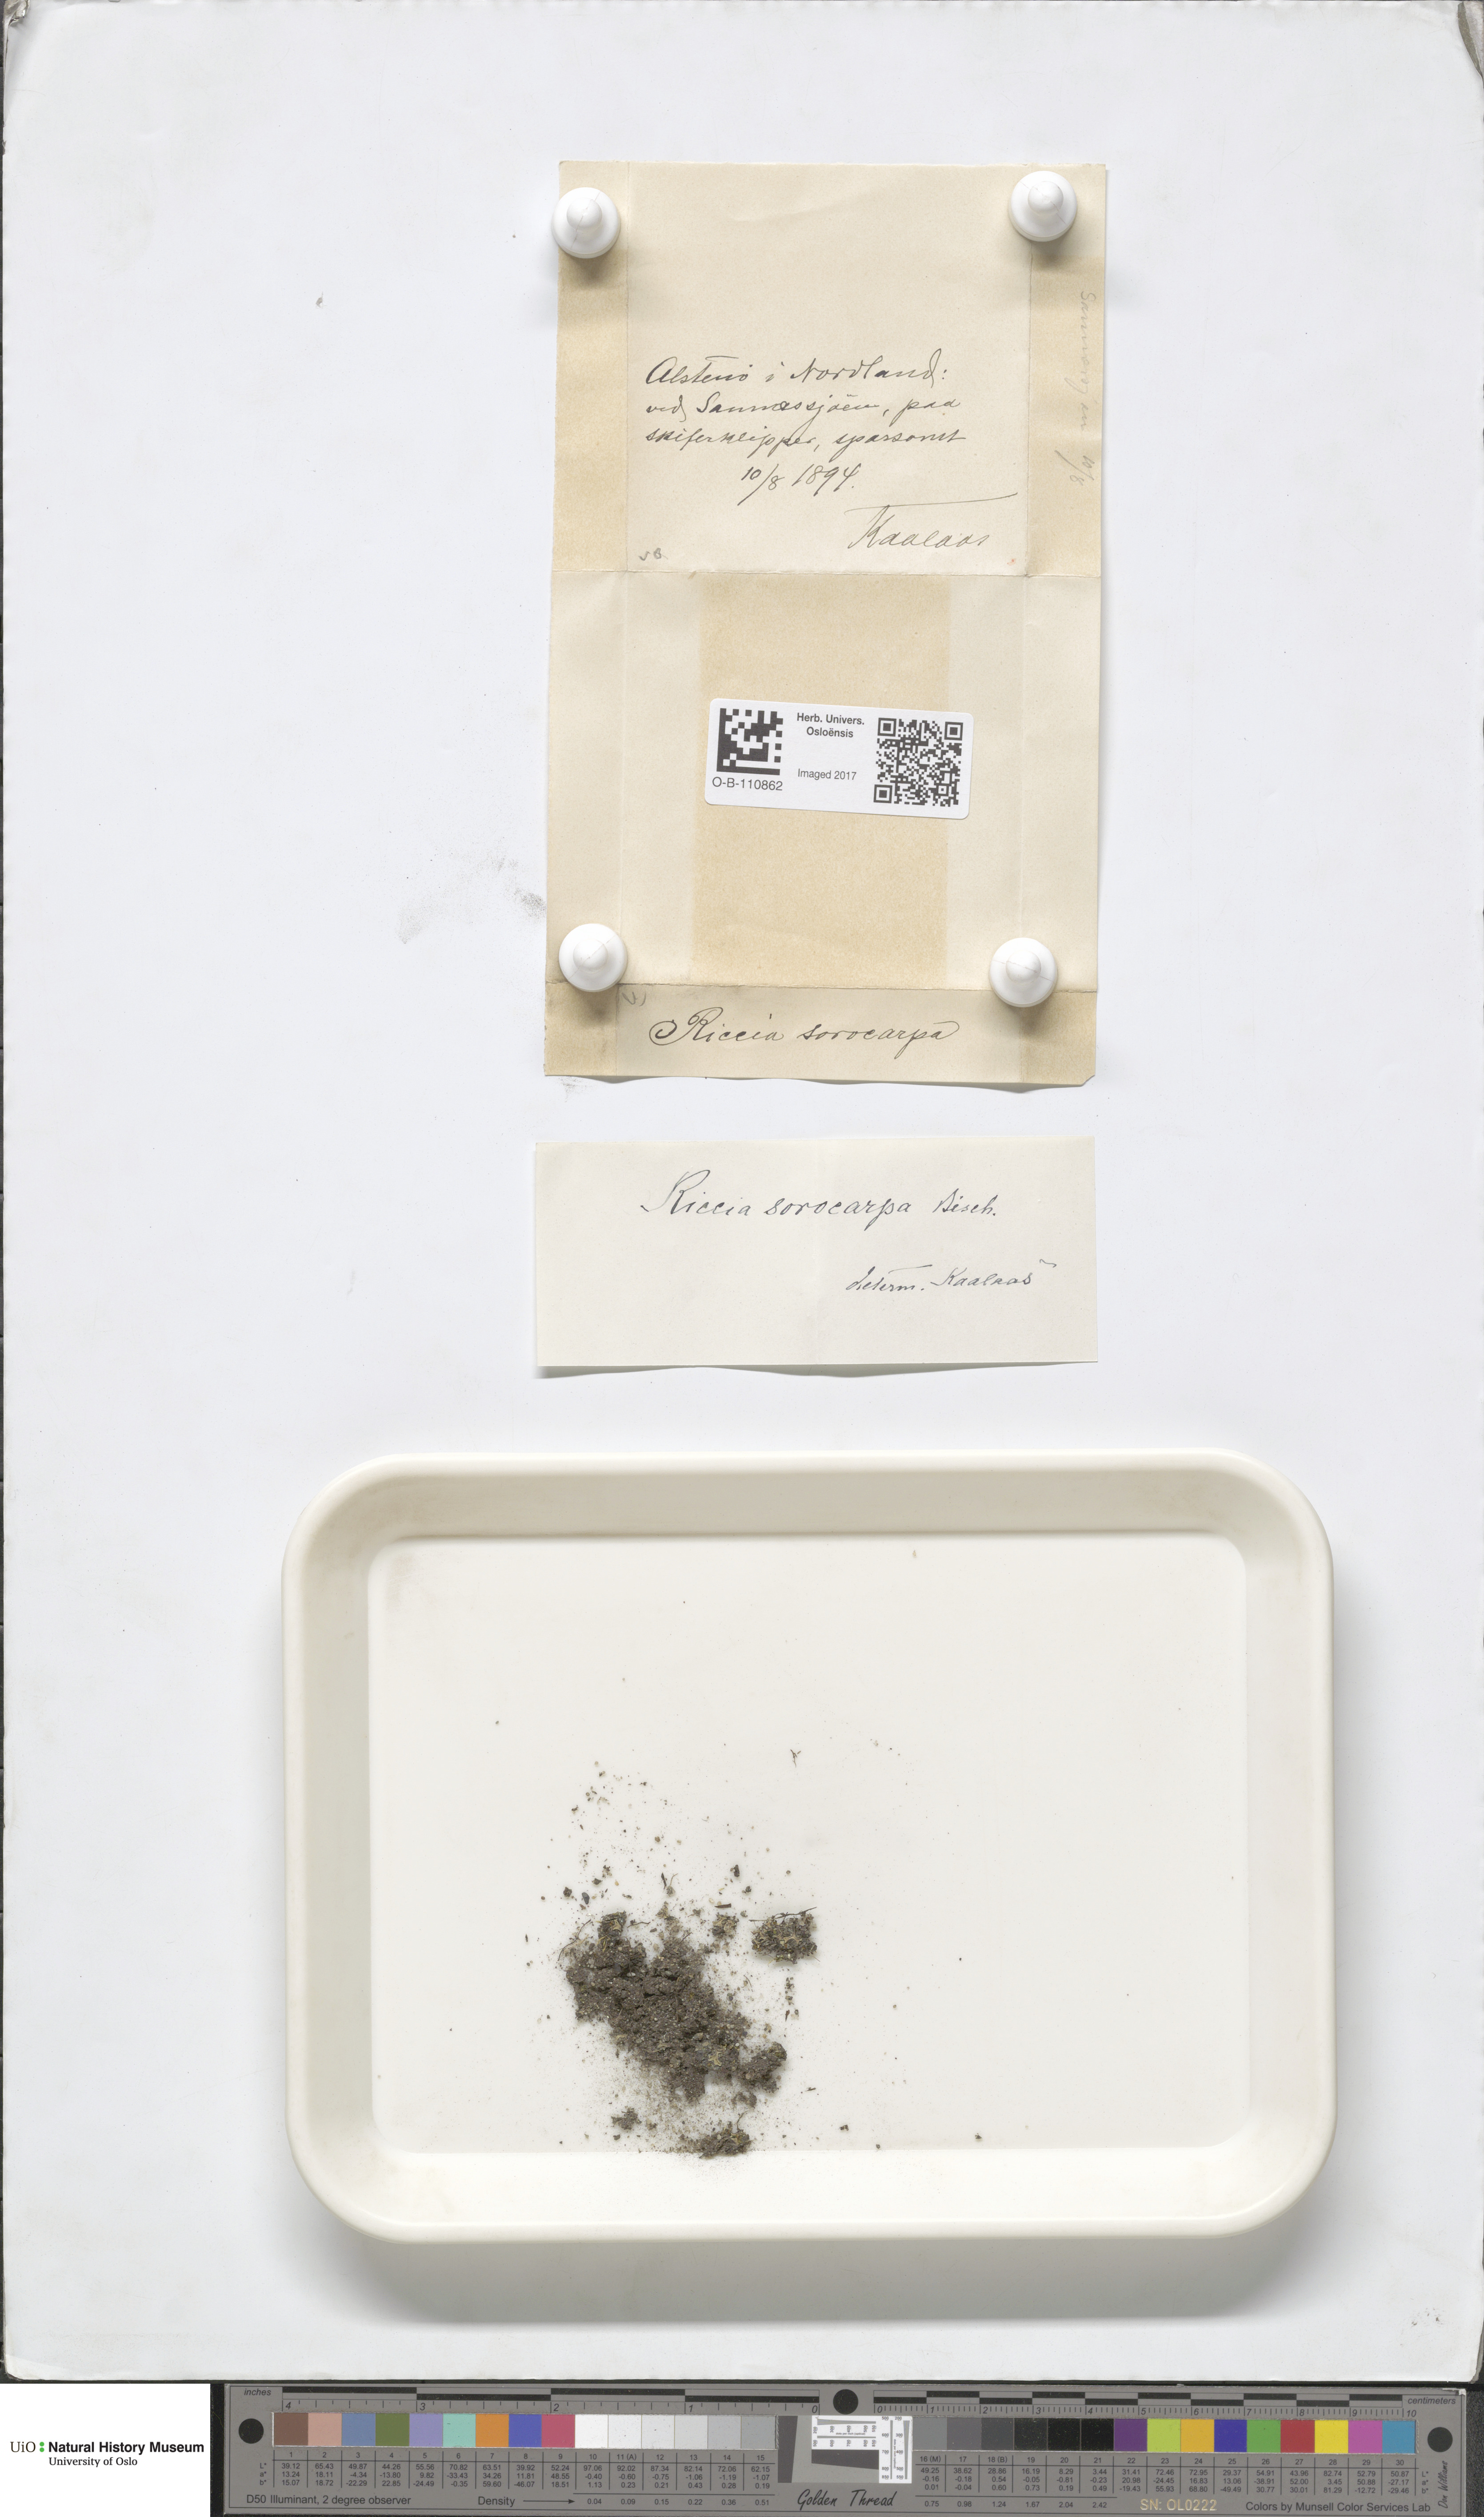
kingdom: Plantae
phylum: Marchantiophyta
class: Marchantiopsida
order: Marchantiales
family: Ricciaceae
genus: Riccia
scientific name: Riccia sorocarpa
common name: Common crystalwort
